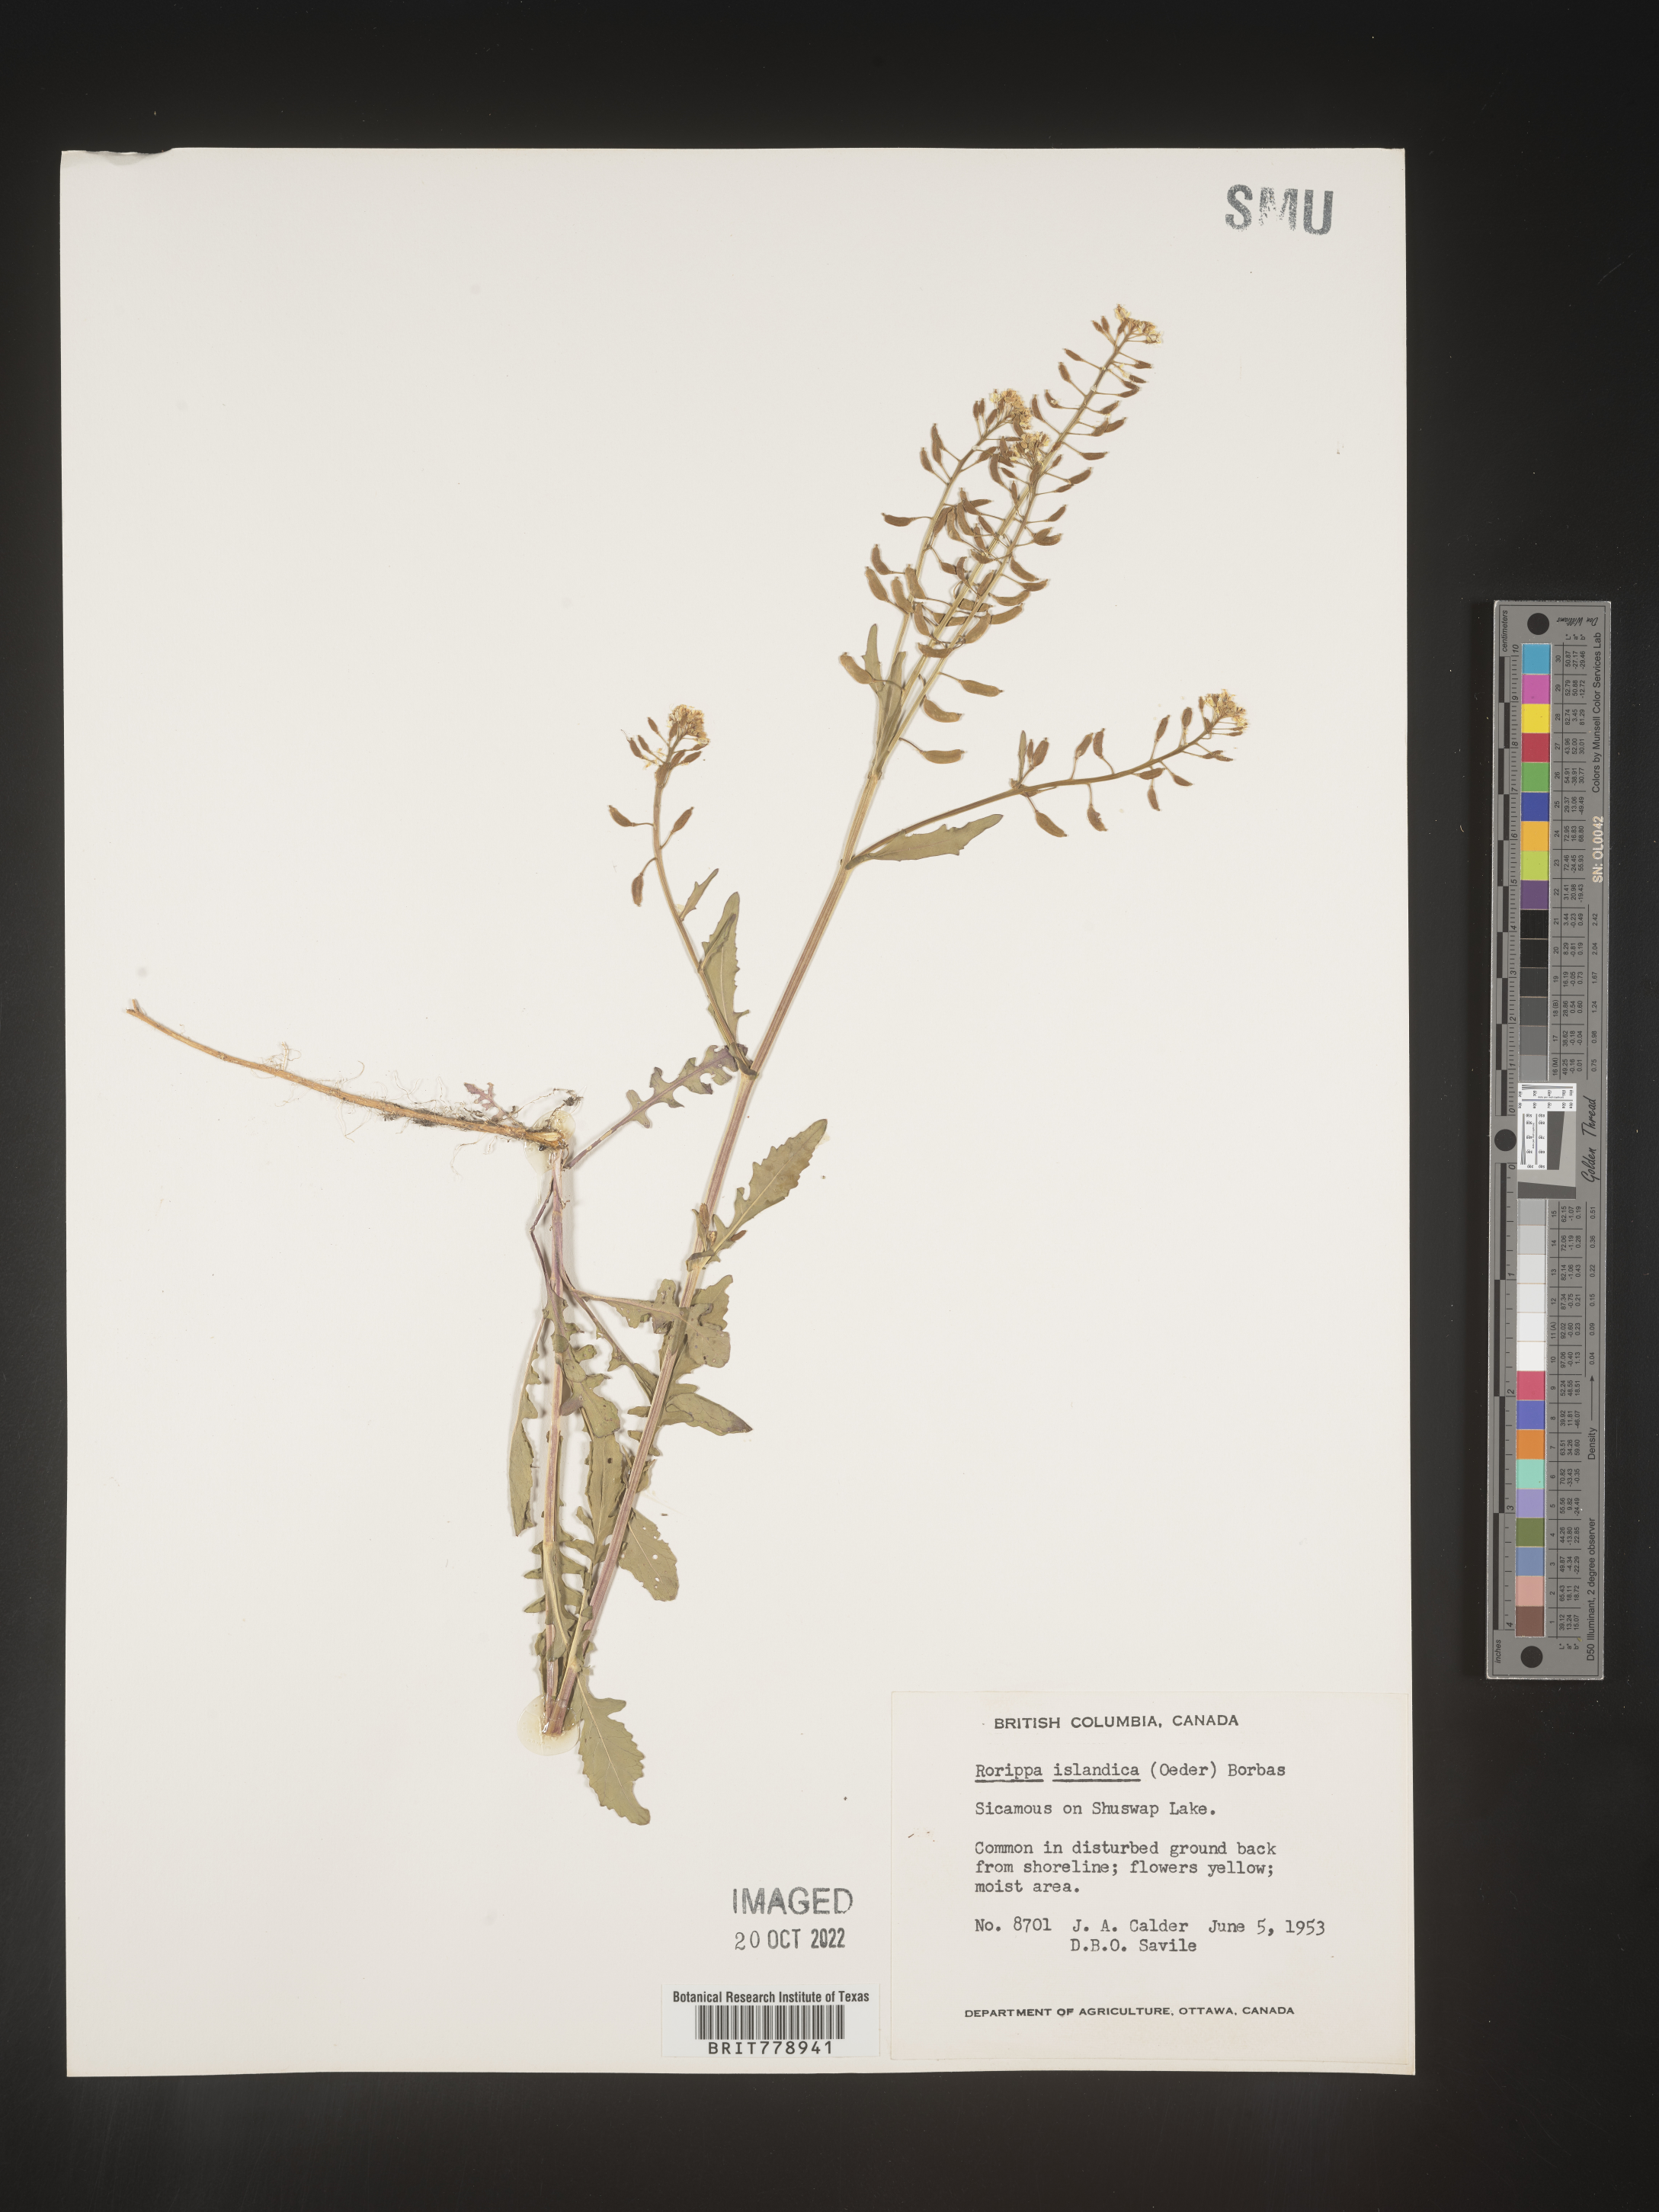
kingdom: Plantae
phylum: Tracheophyta
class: Magnoliopsida
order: Brassicales
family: Brassicaceae
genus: Rorippa
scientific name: Rorippa palustris
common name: Marsh yellow-cress
